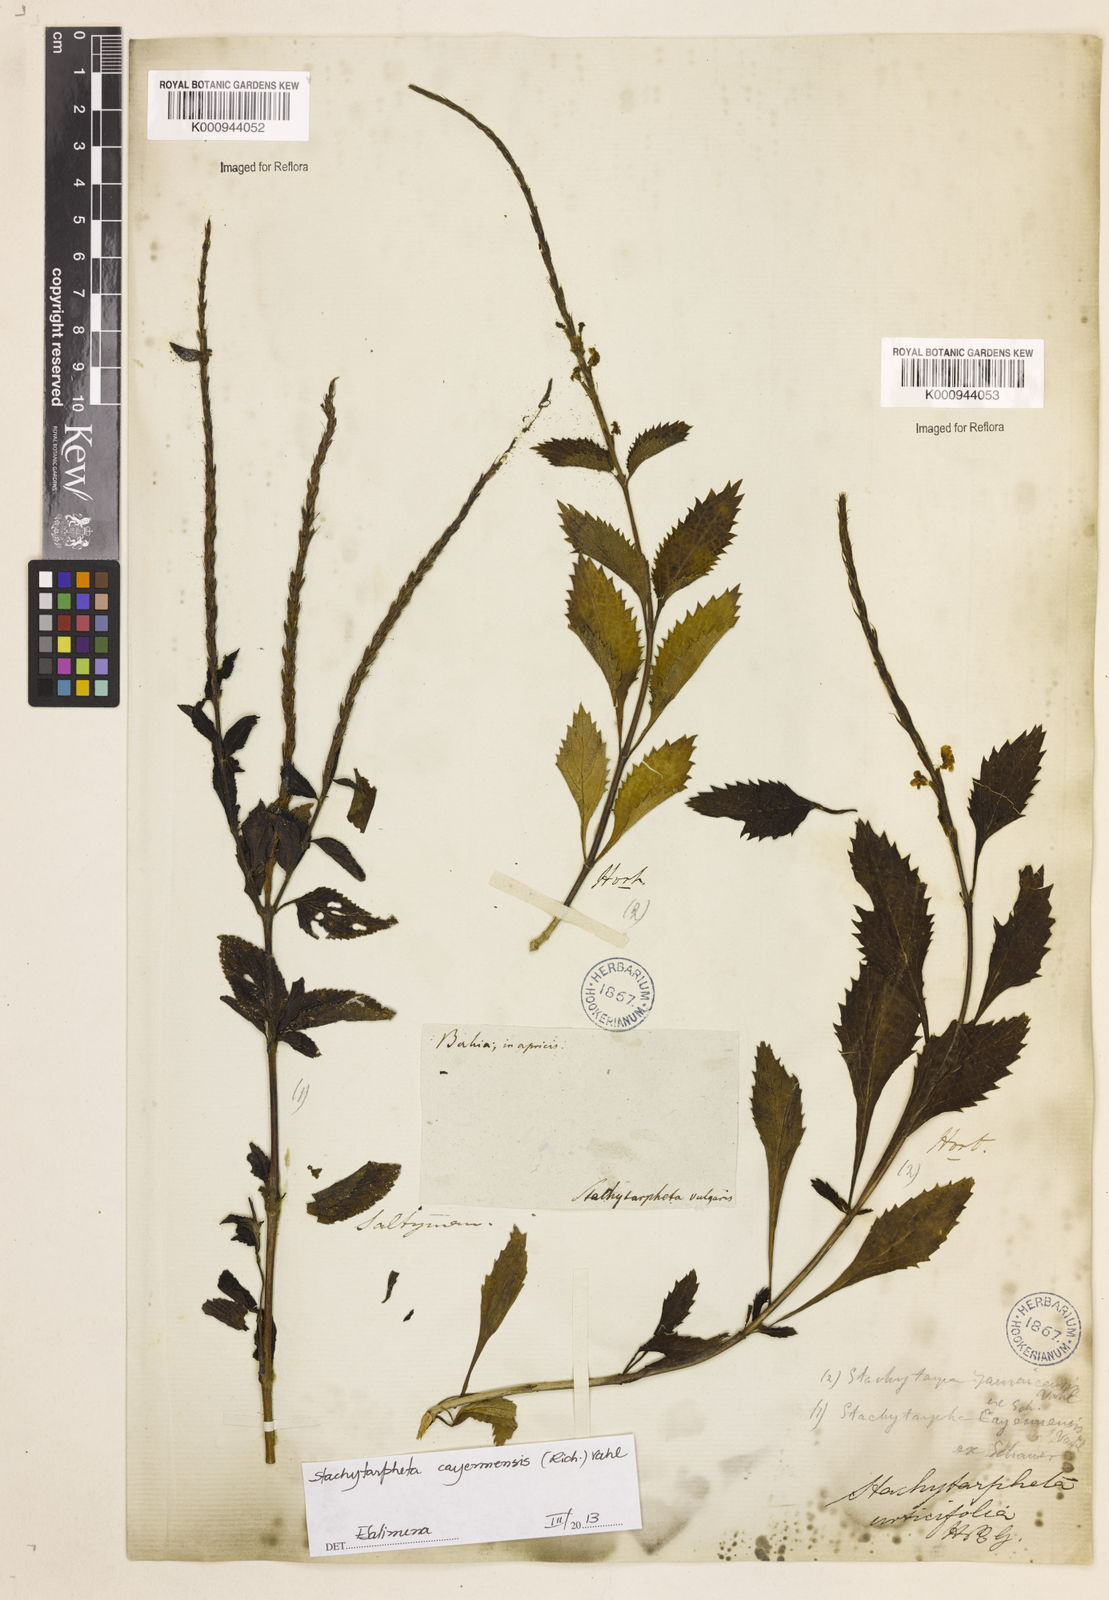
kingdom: Plantae
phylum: Tracheophyta
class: Magnoliopsida
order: Lamiales
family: Verbenaceae
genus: Aloysia
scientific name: Aloysia
